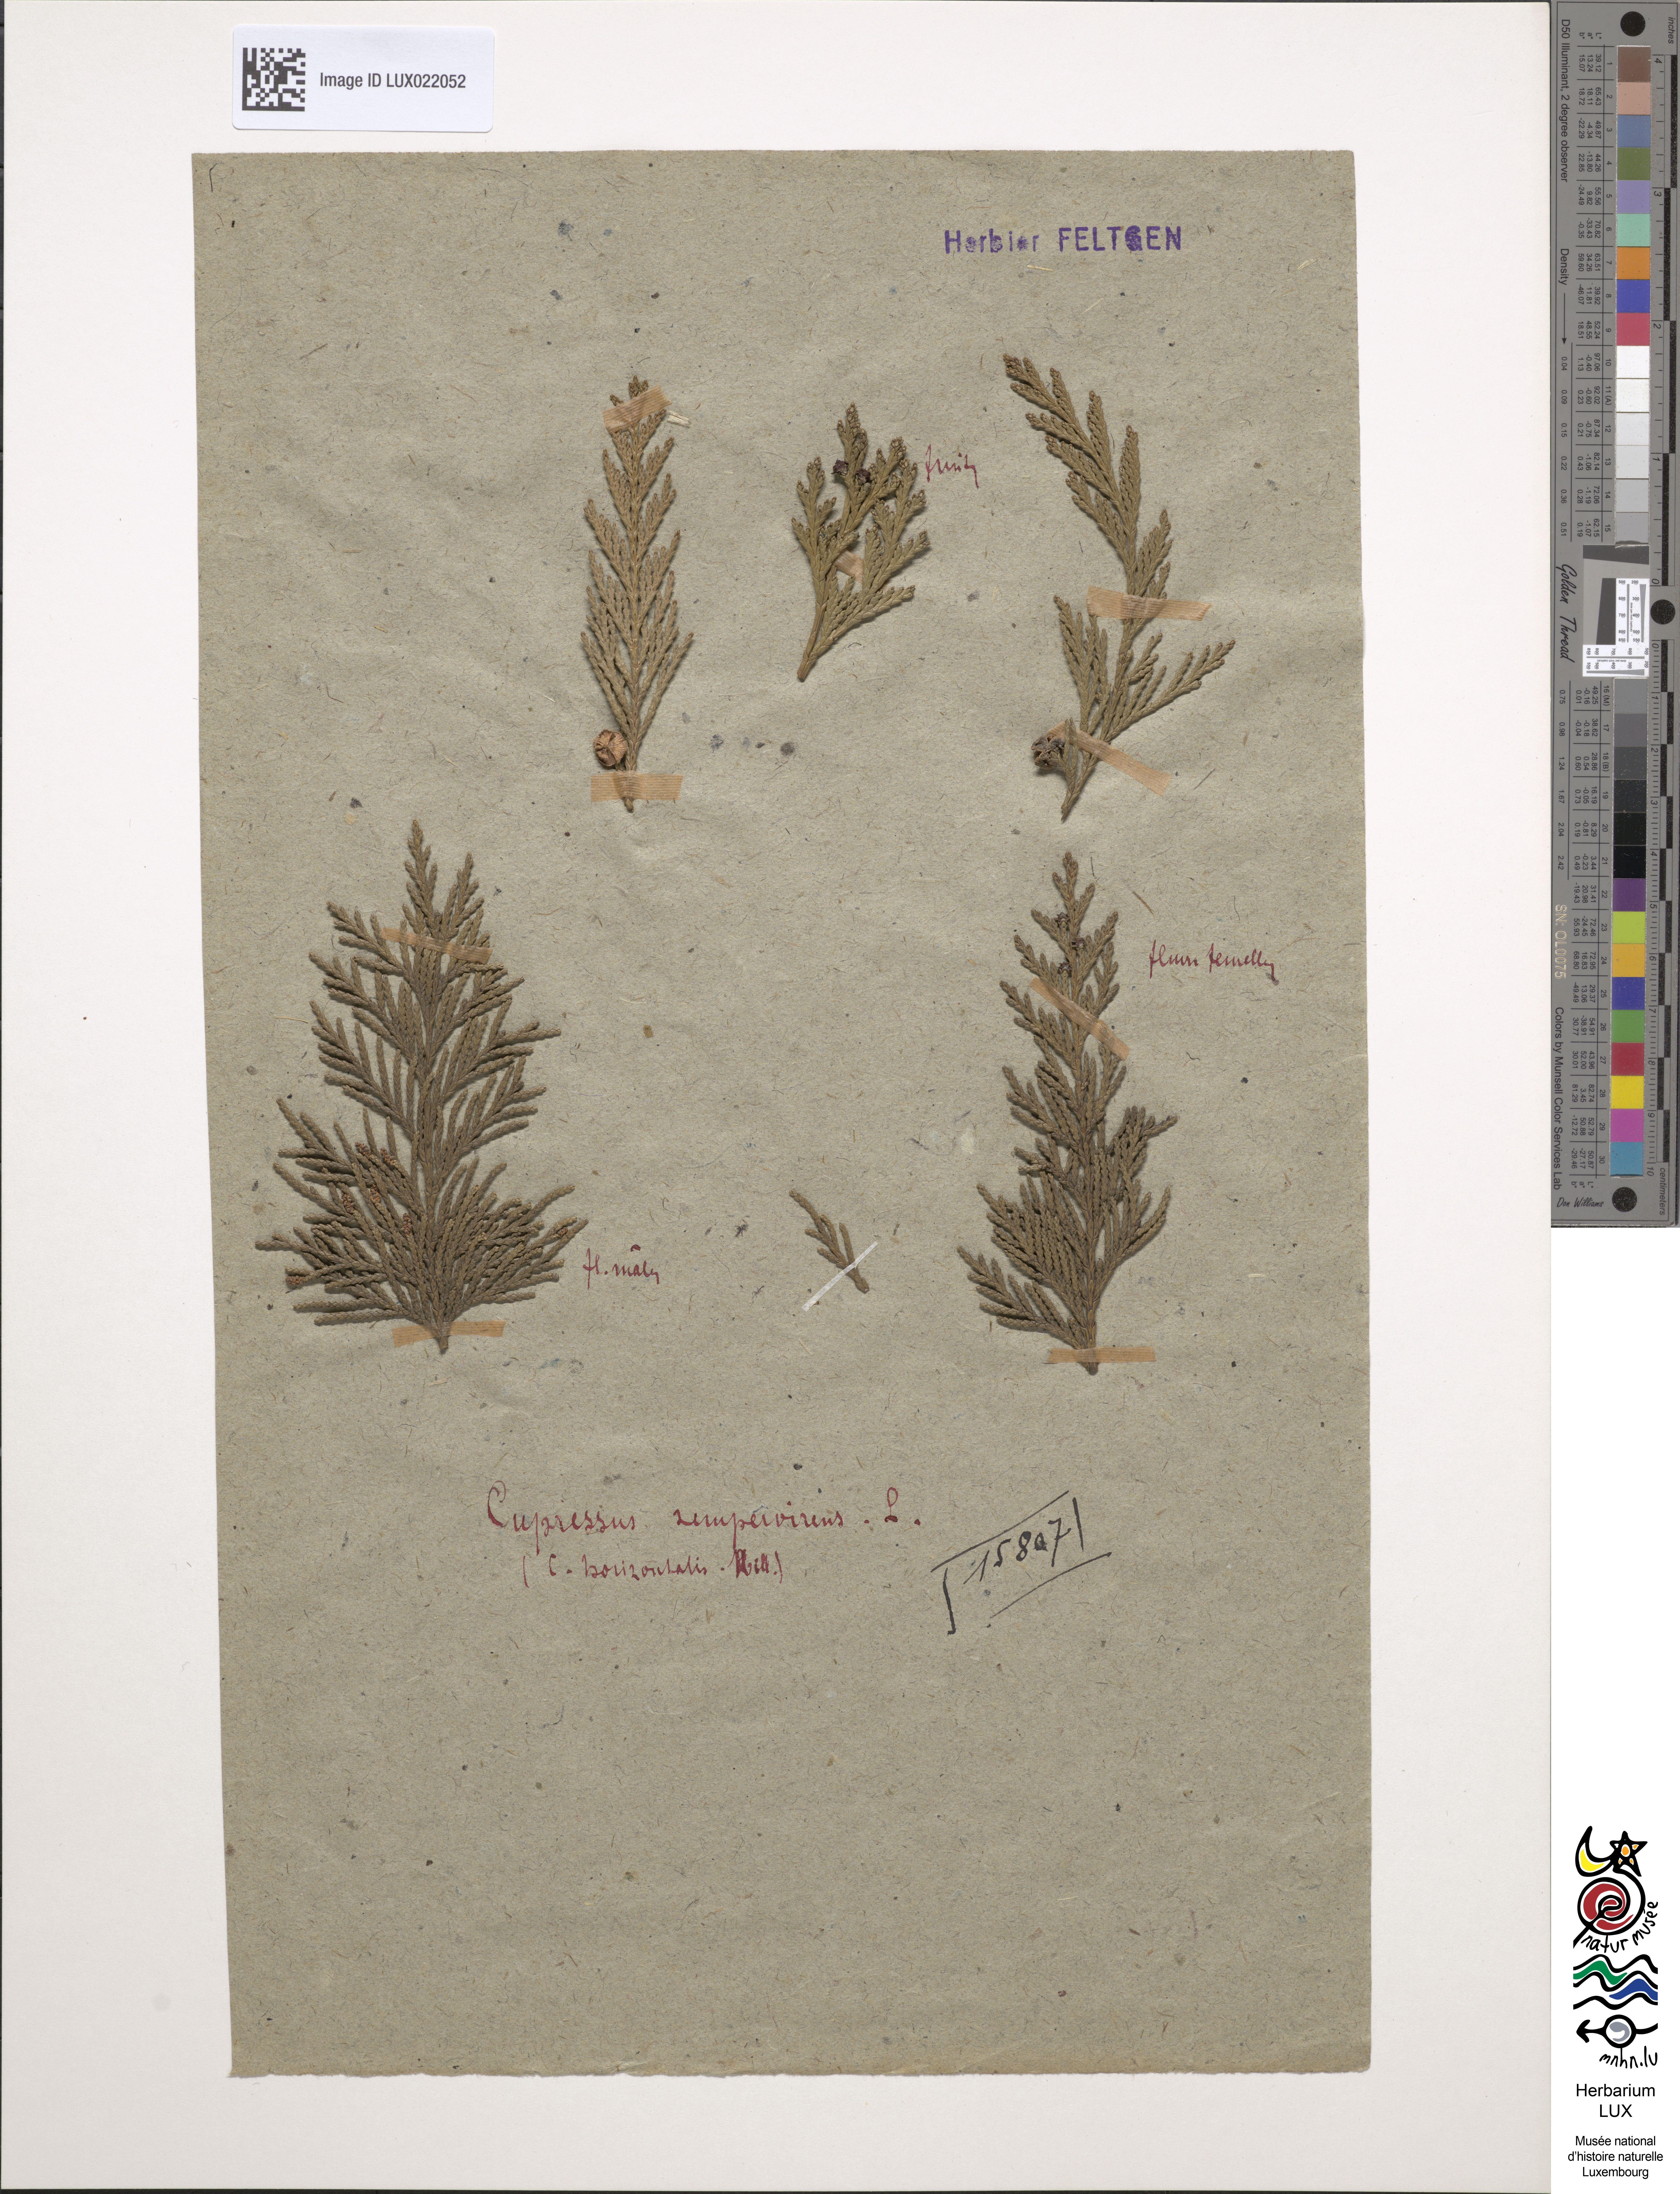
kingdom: Plantae
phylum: Tracheophyta
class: Pinopsida
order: Pinales
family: Cupressaceae
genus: Cupressus
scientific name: Cupressus sempervirens
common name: Italian cypress
